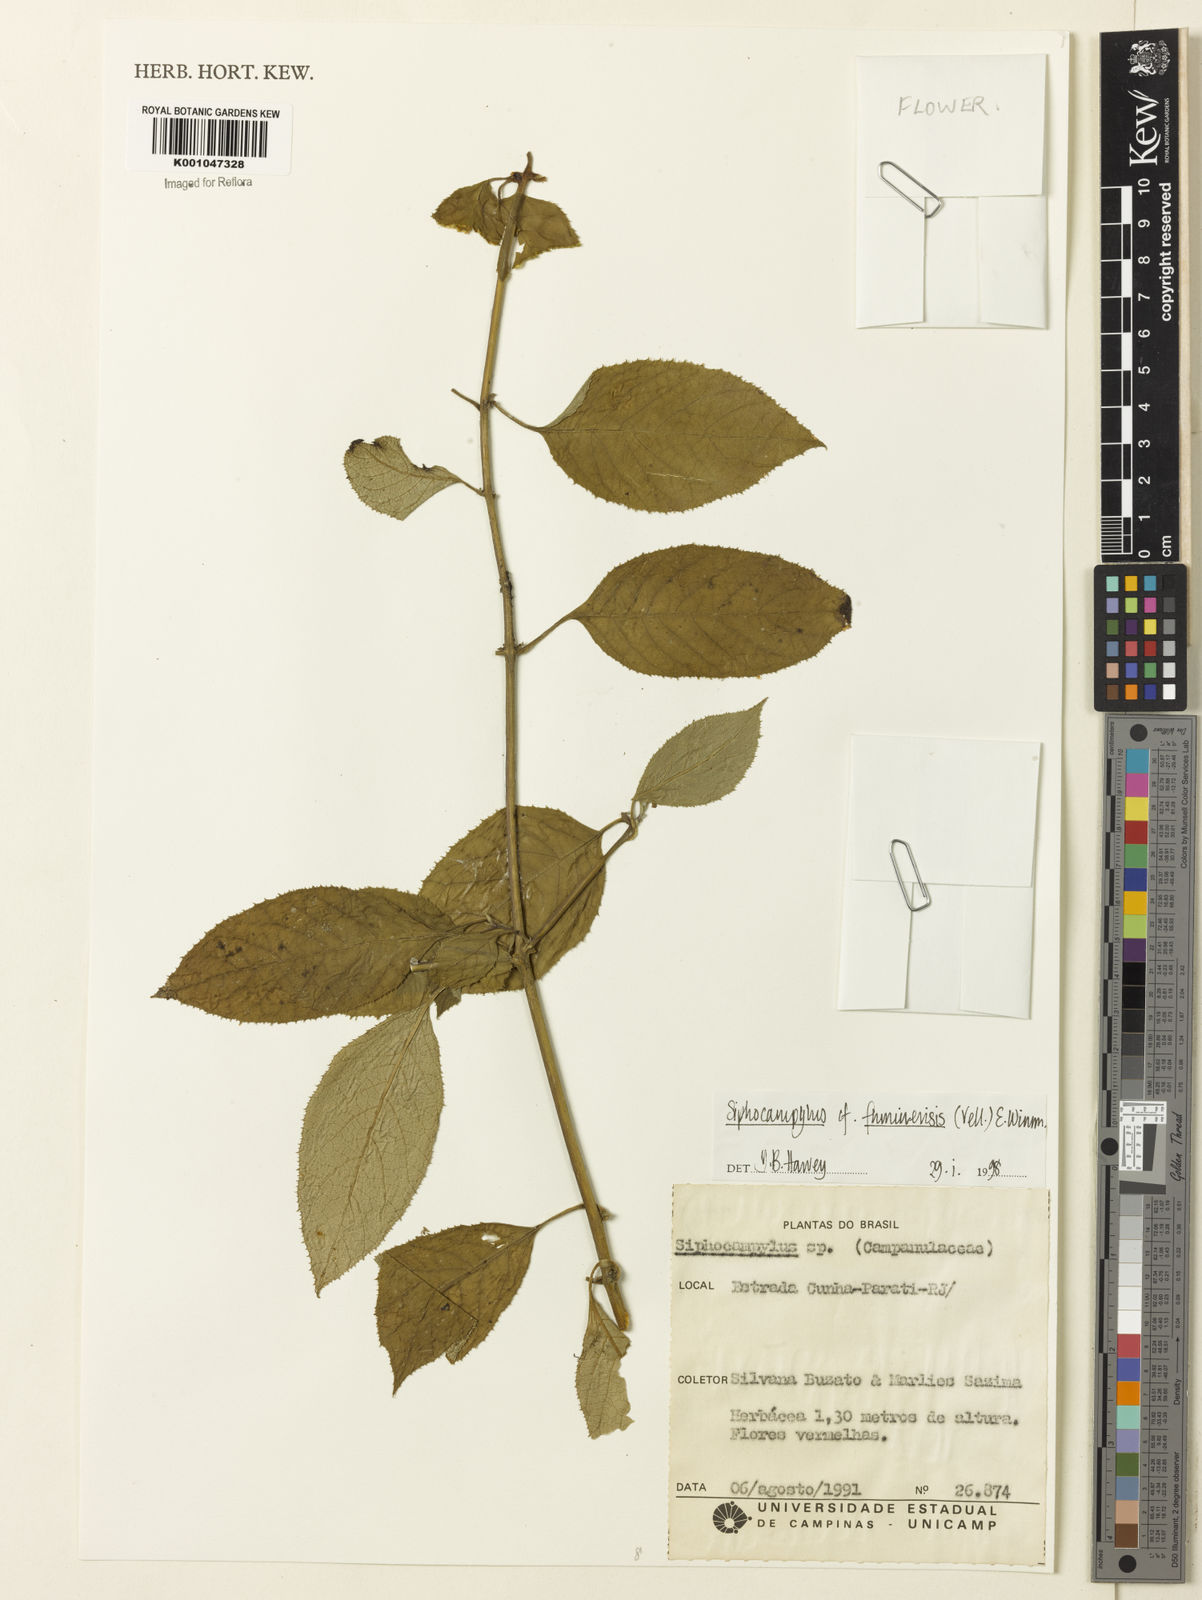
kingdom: Plantae
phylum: Tracheophyta
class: Magnoliopsida
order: Asterales
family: Campanulaceae
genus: Siphocampylus
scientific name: Siphocampylus fluminensis
